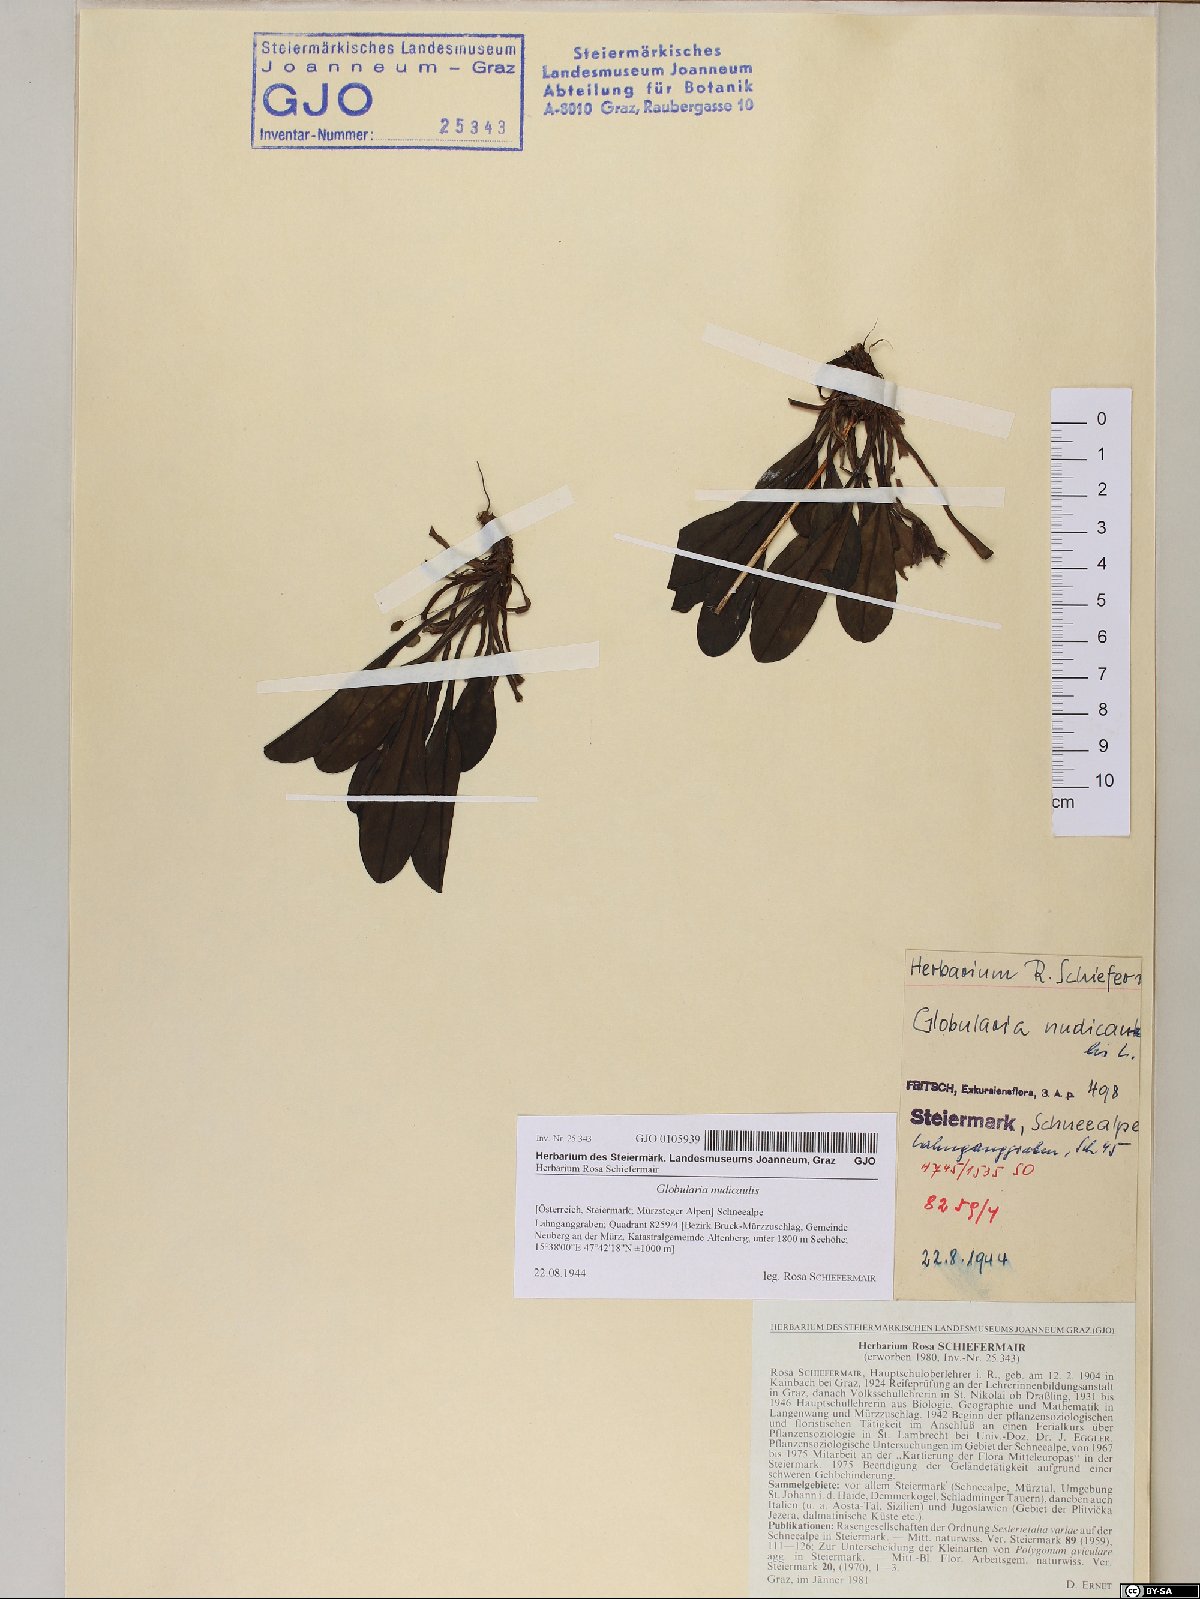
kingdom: Plantae
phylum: Tracheophyta
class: Magnoliopsida
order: Lamiales
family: Plantaginaceae
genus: Globularia
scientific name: Globularia nudicaulis
